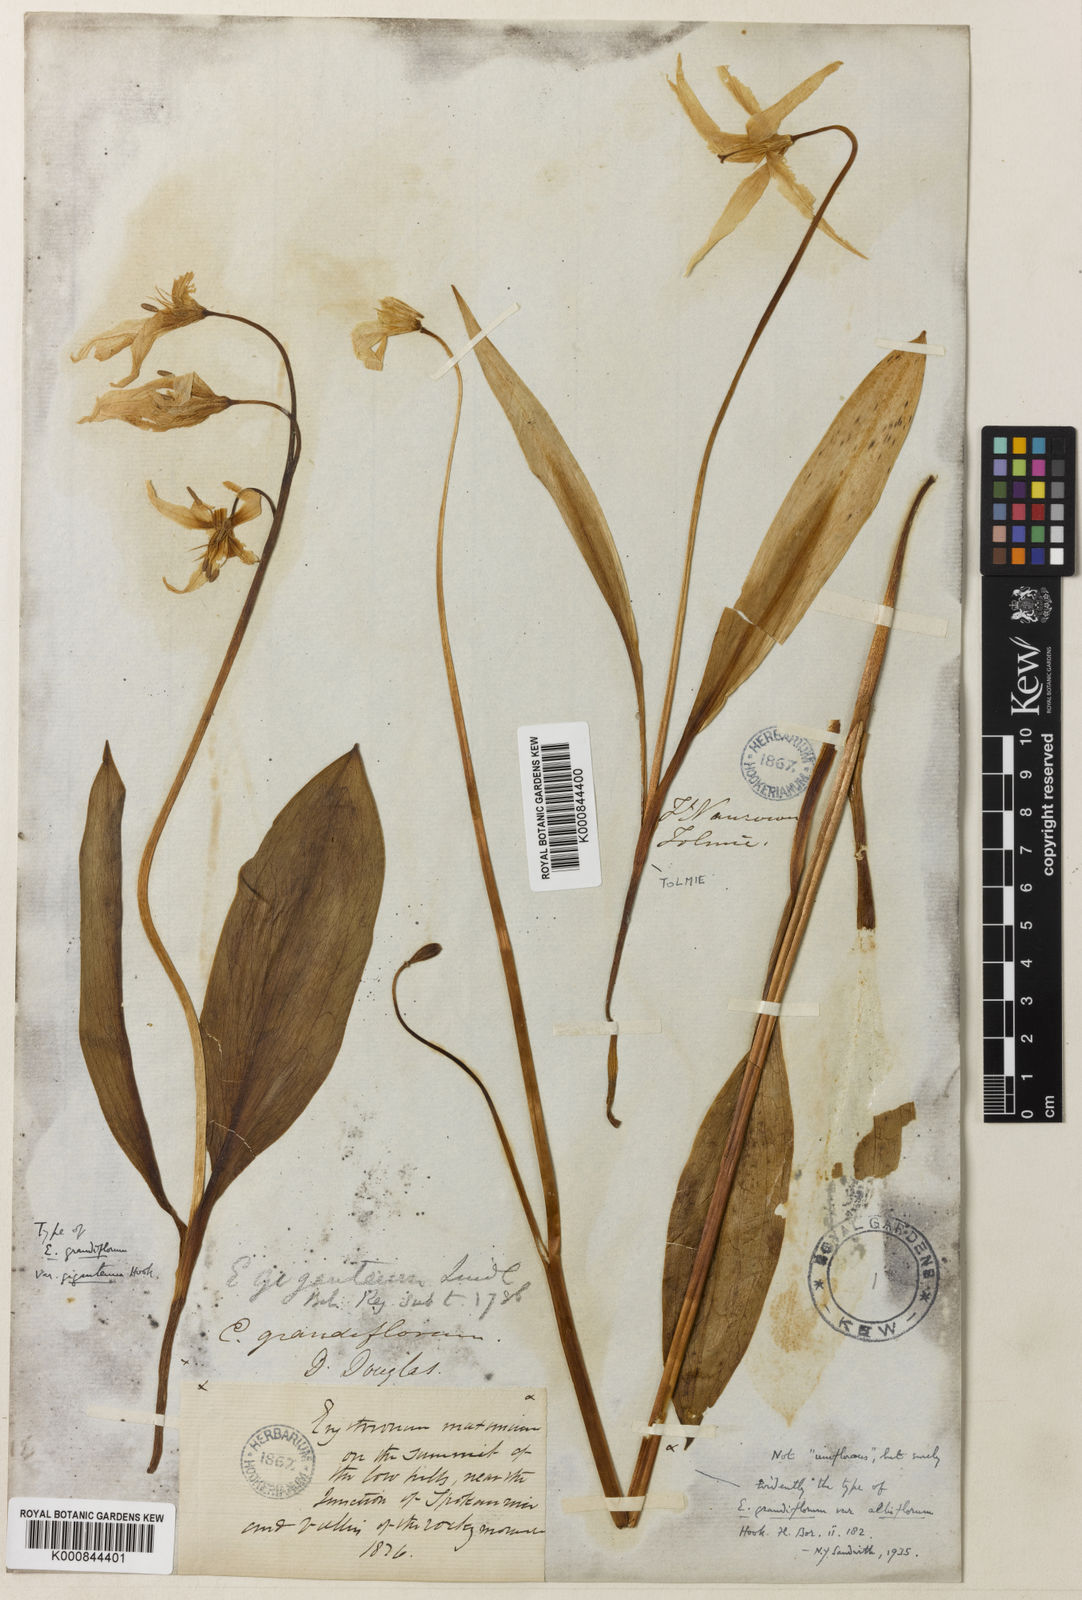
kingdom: Plantae
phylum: Tracheophyta
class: Liliopsida
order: Liliales
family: Liliaceae
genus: Erythronium
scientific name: Erythronium grandiflorum
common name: Avalanche-lily
